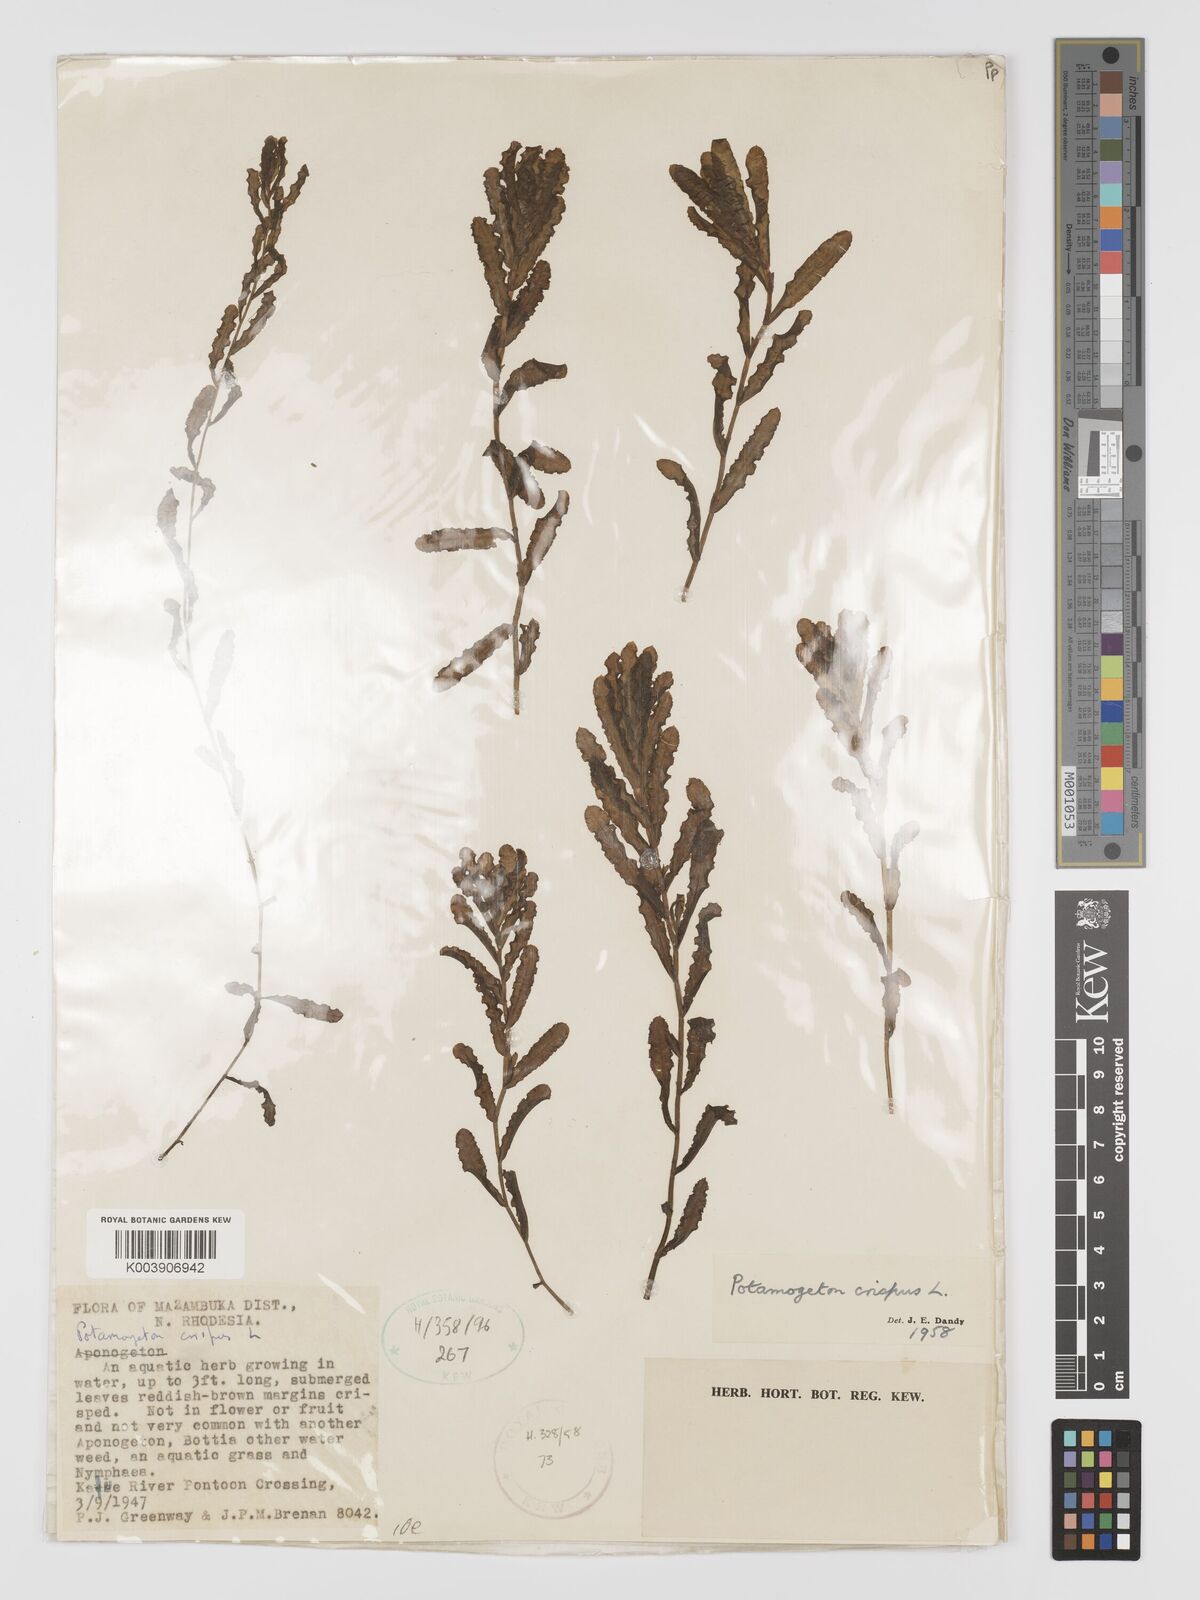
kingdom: Plantae
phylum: Tracheophyta
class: Liliopsida
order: Alismatales
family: Potamogetonaceae
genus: Potamogeton
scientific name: Potamogeton crispus
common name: Curled pondweed
